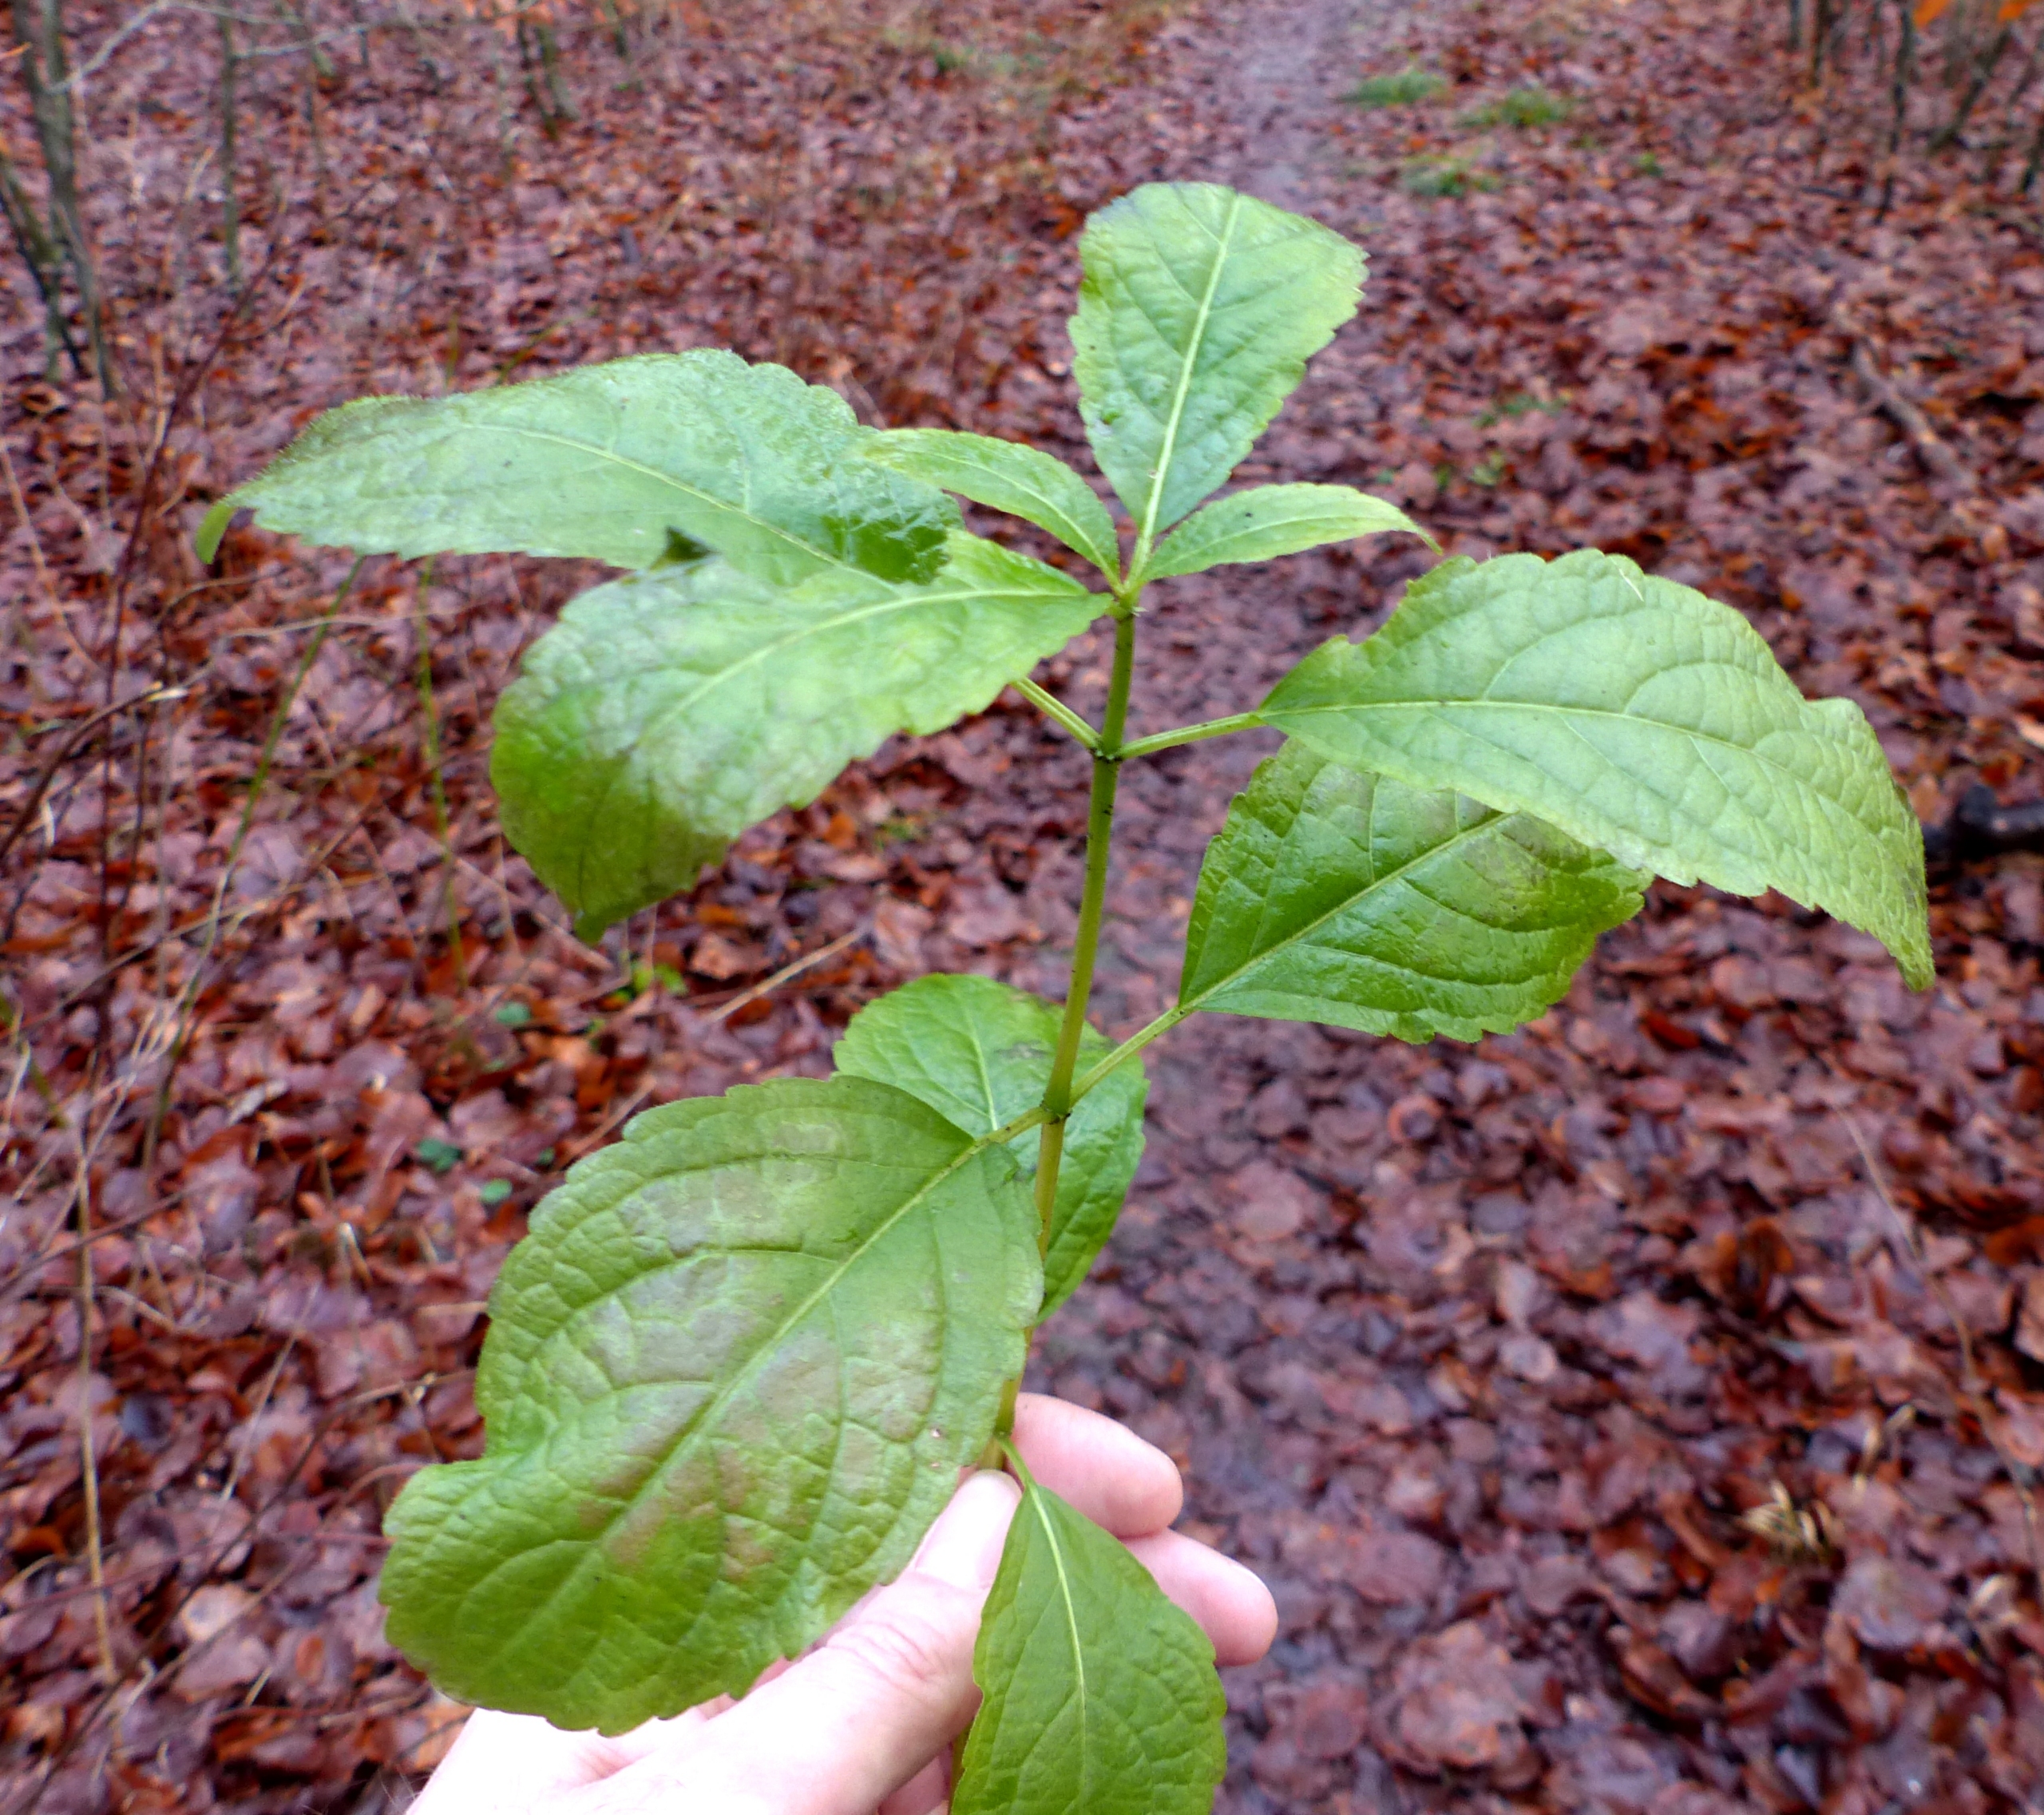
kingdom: Plantae
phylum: Tracheophyta
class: Magnoliopsida
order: Malpighiales
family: Euphorbiaceae
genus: Mercurialis
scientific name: Mercurialis perennis
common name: Almindelig bingelurt
